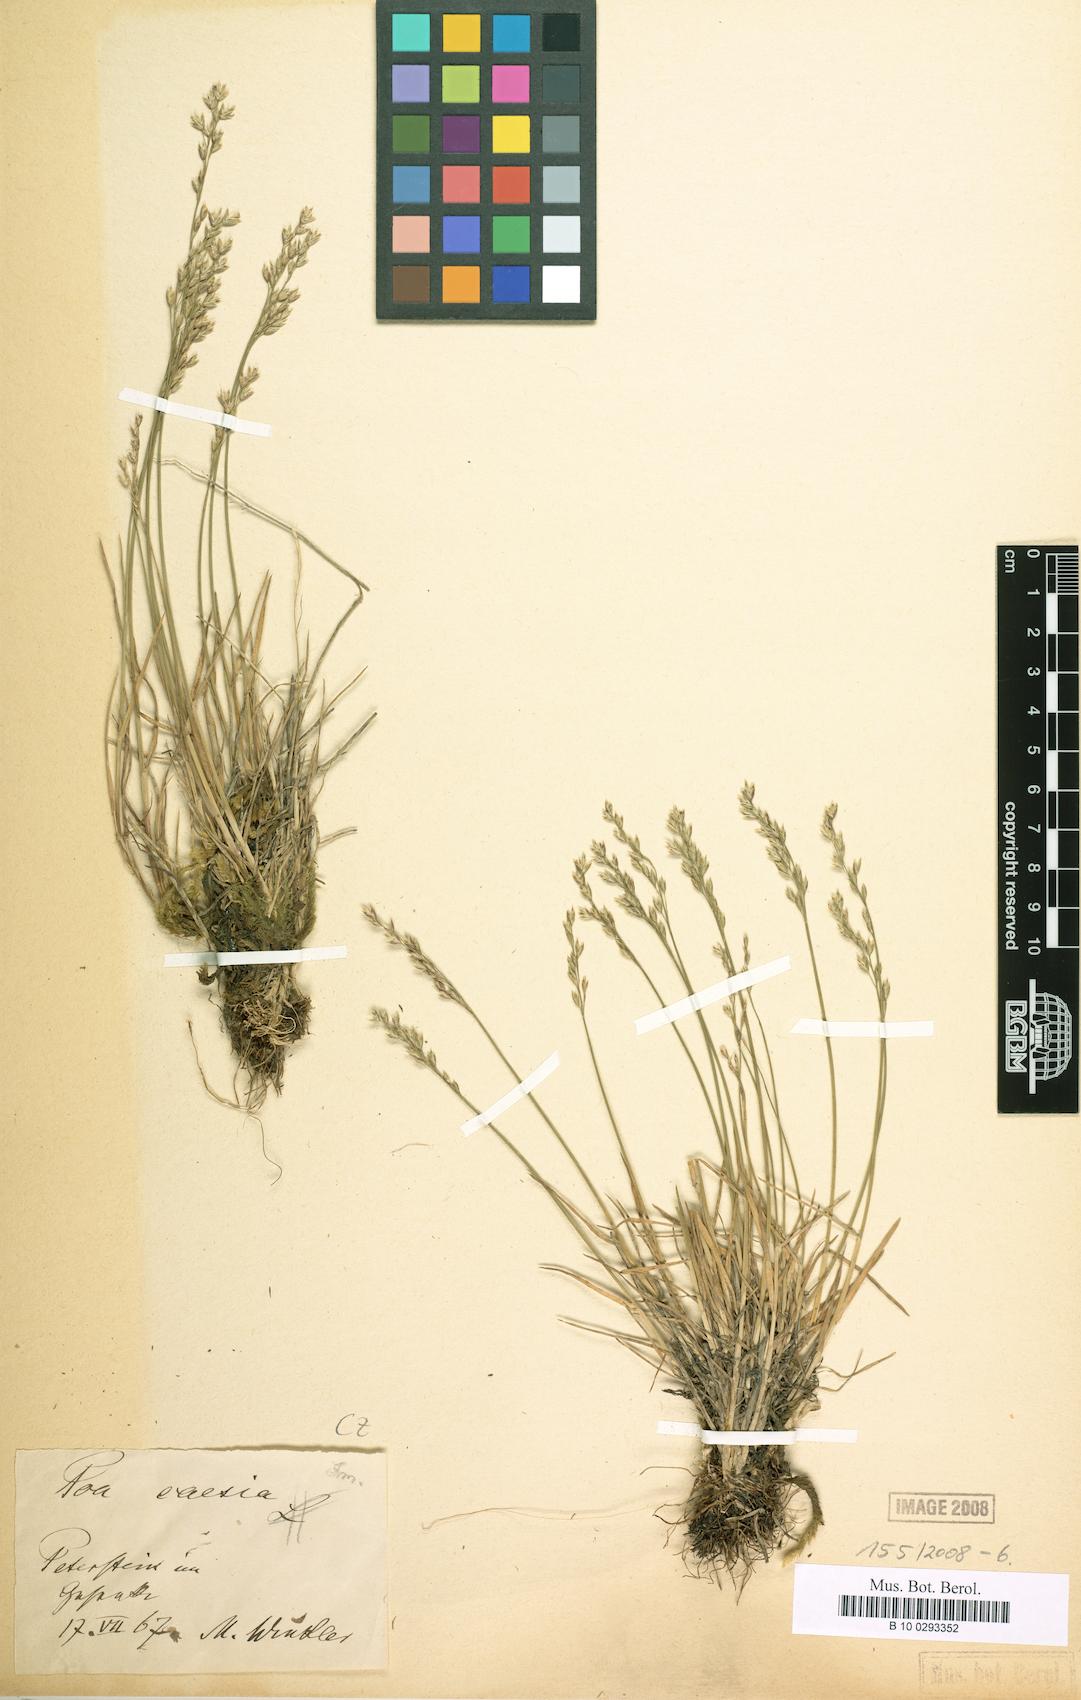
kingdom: Plantae
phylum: Tracheophyta
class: Liliopsida
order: Poales
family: Poaceae
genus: Poa
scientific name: Poa glauca
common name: Glaucous bluegrass
